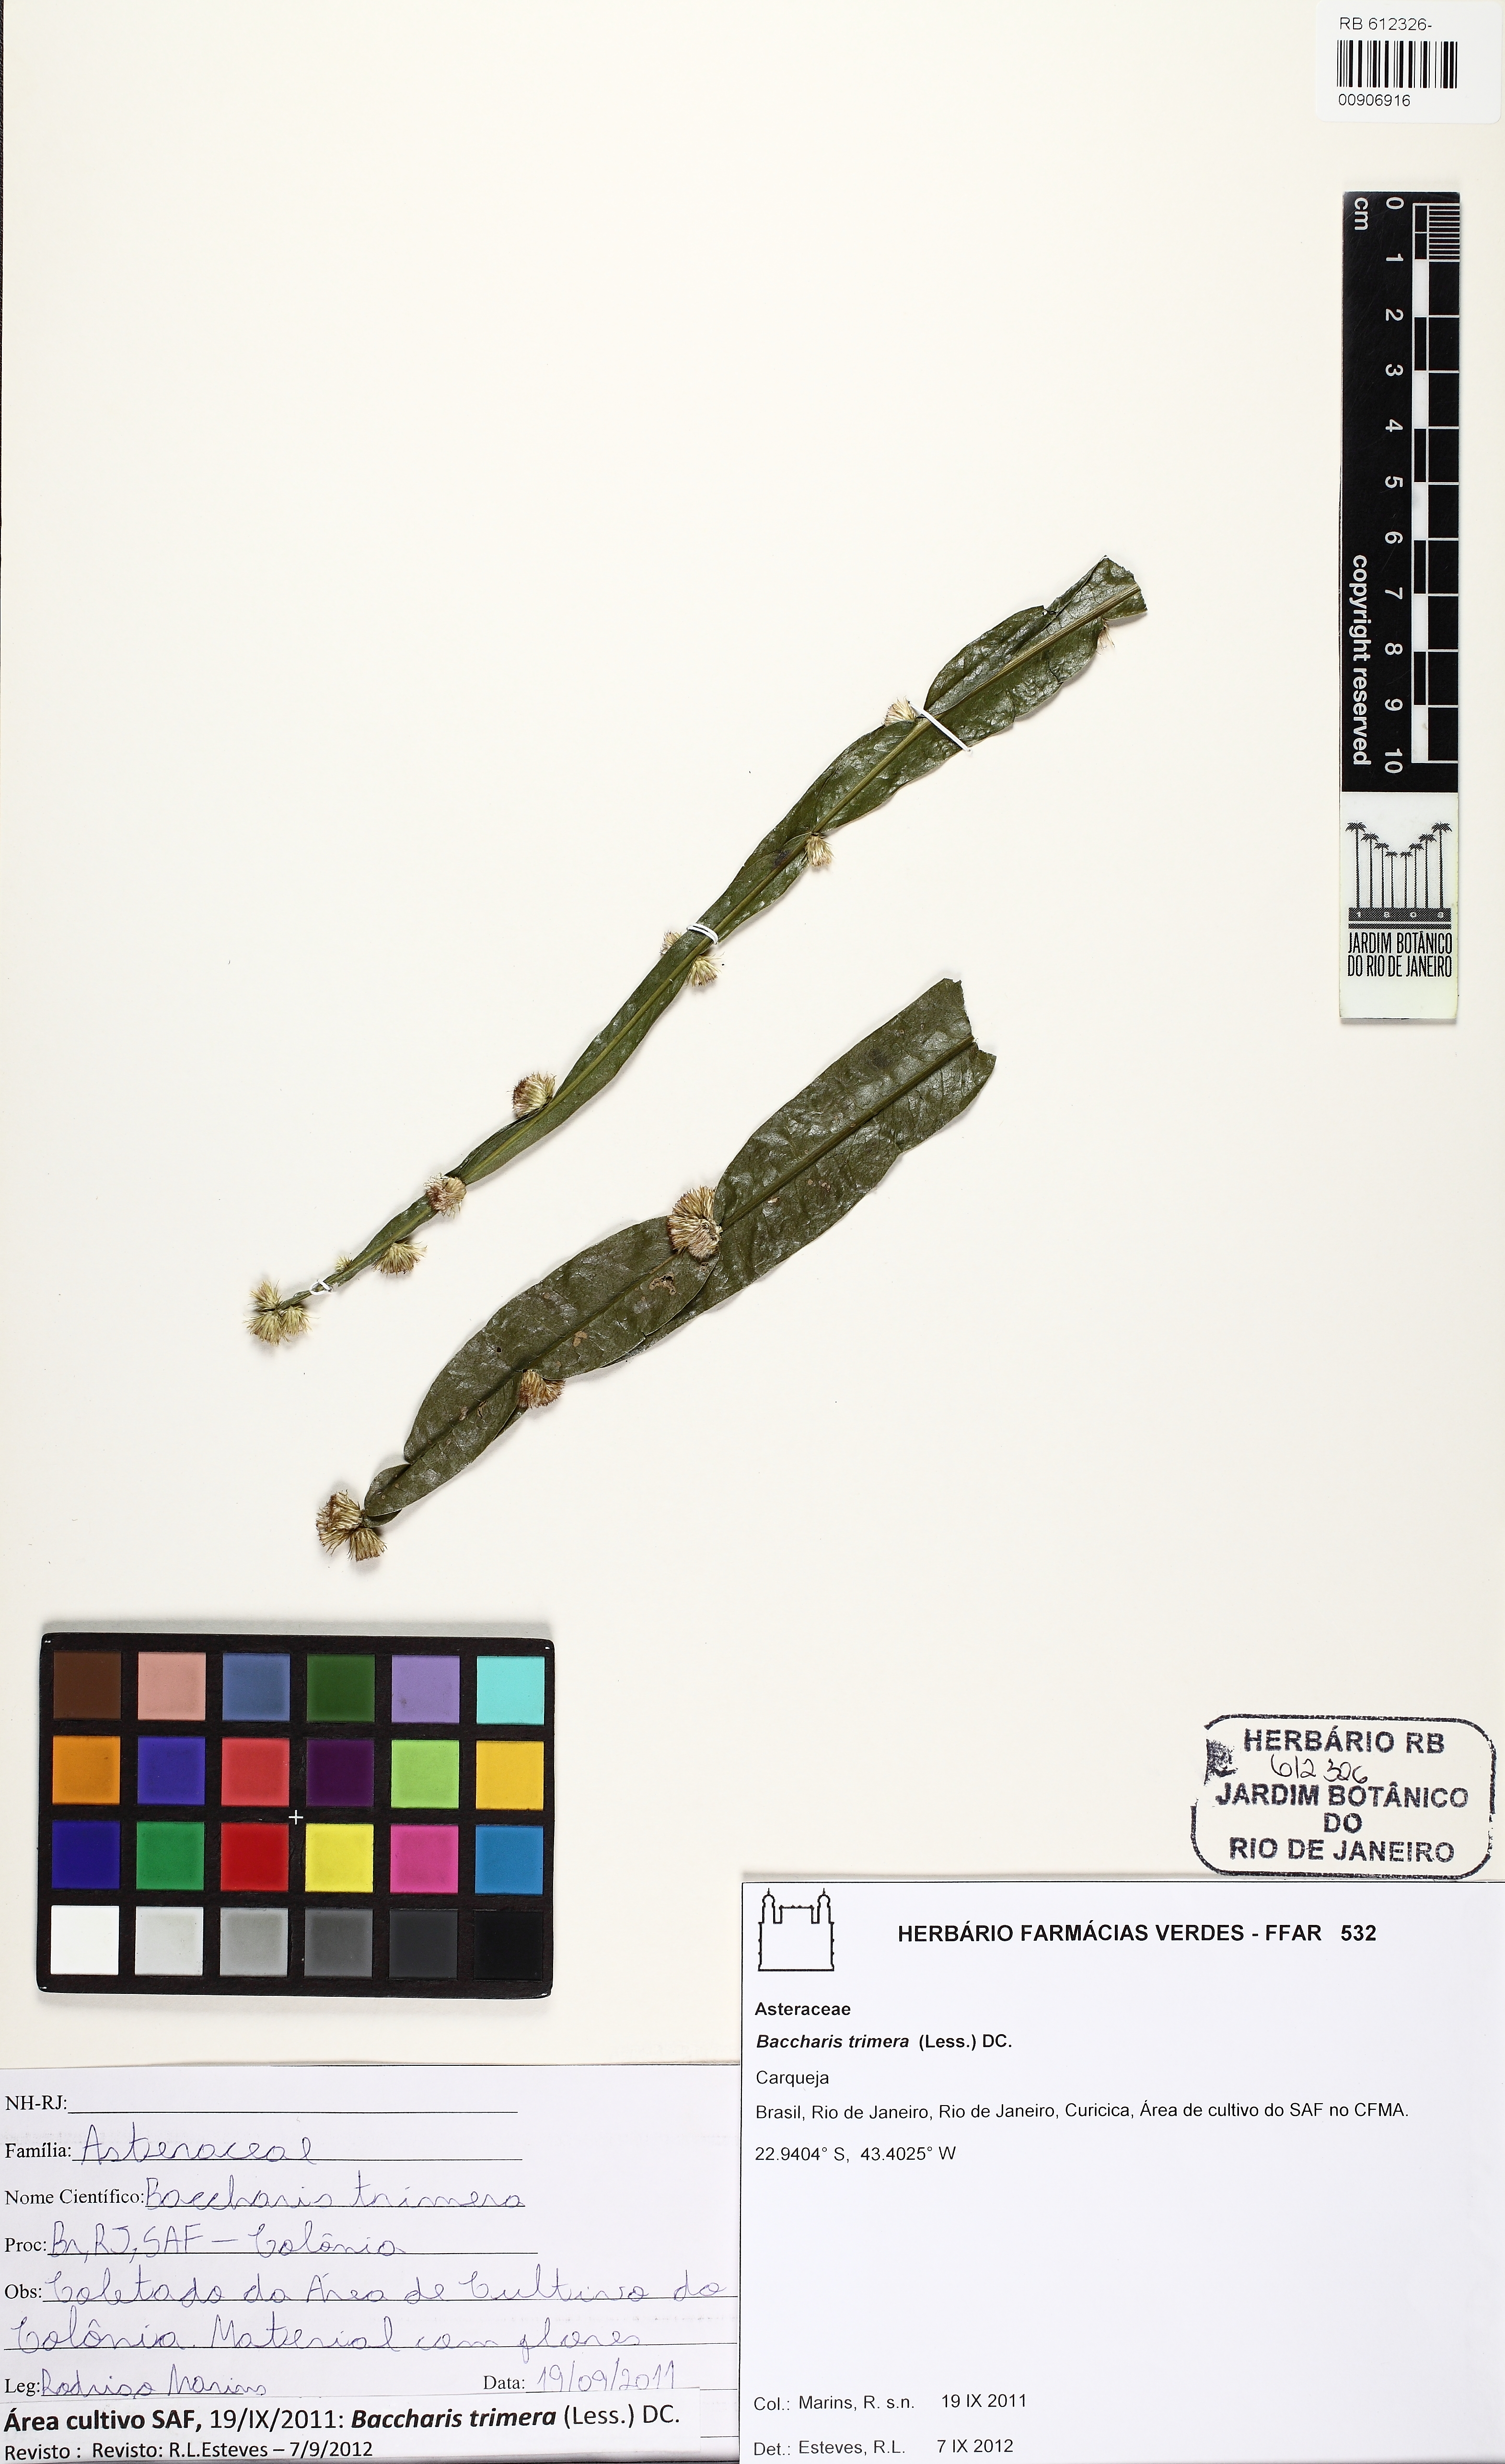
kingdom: Plantae
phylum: Tracheophyta
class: Magnoliopsida
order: Asterales
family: Asteraceae
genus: Baccharis
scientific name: Baccharis trimera
